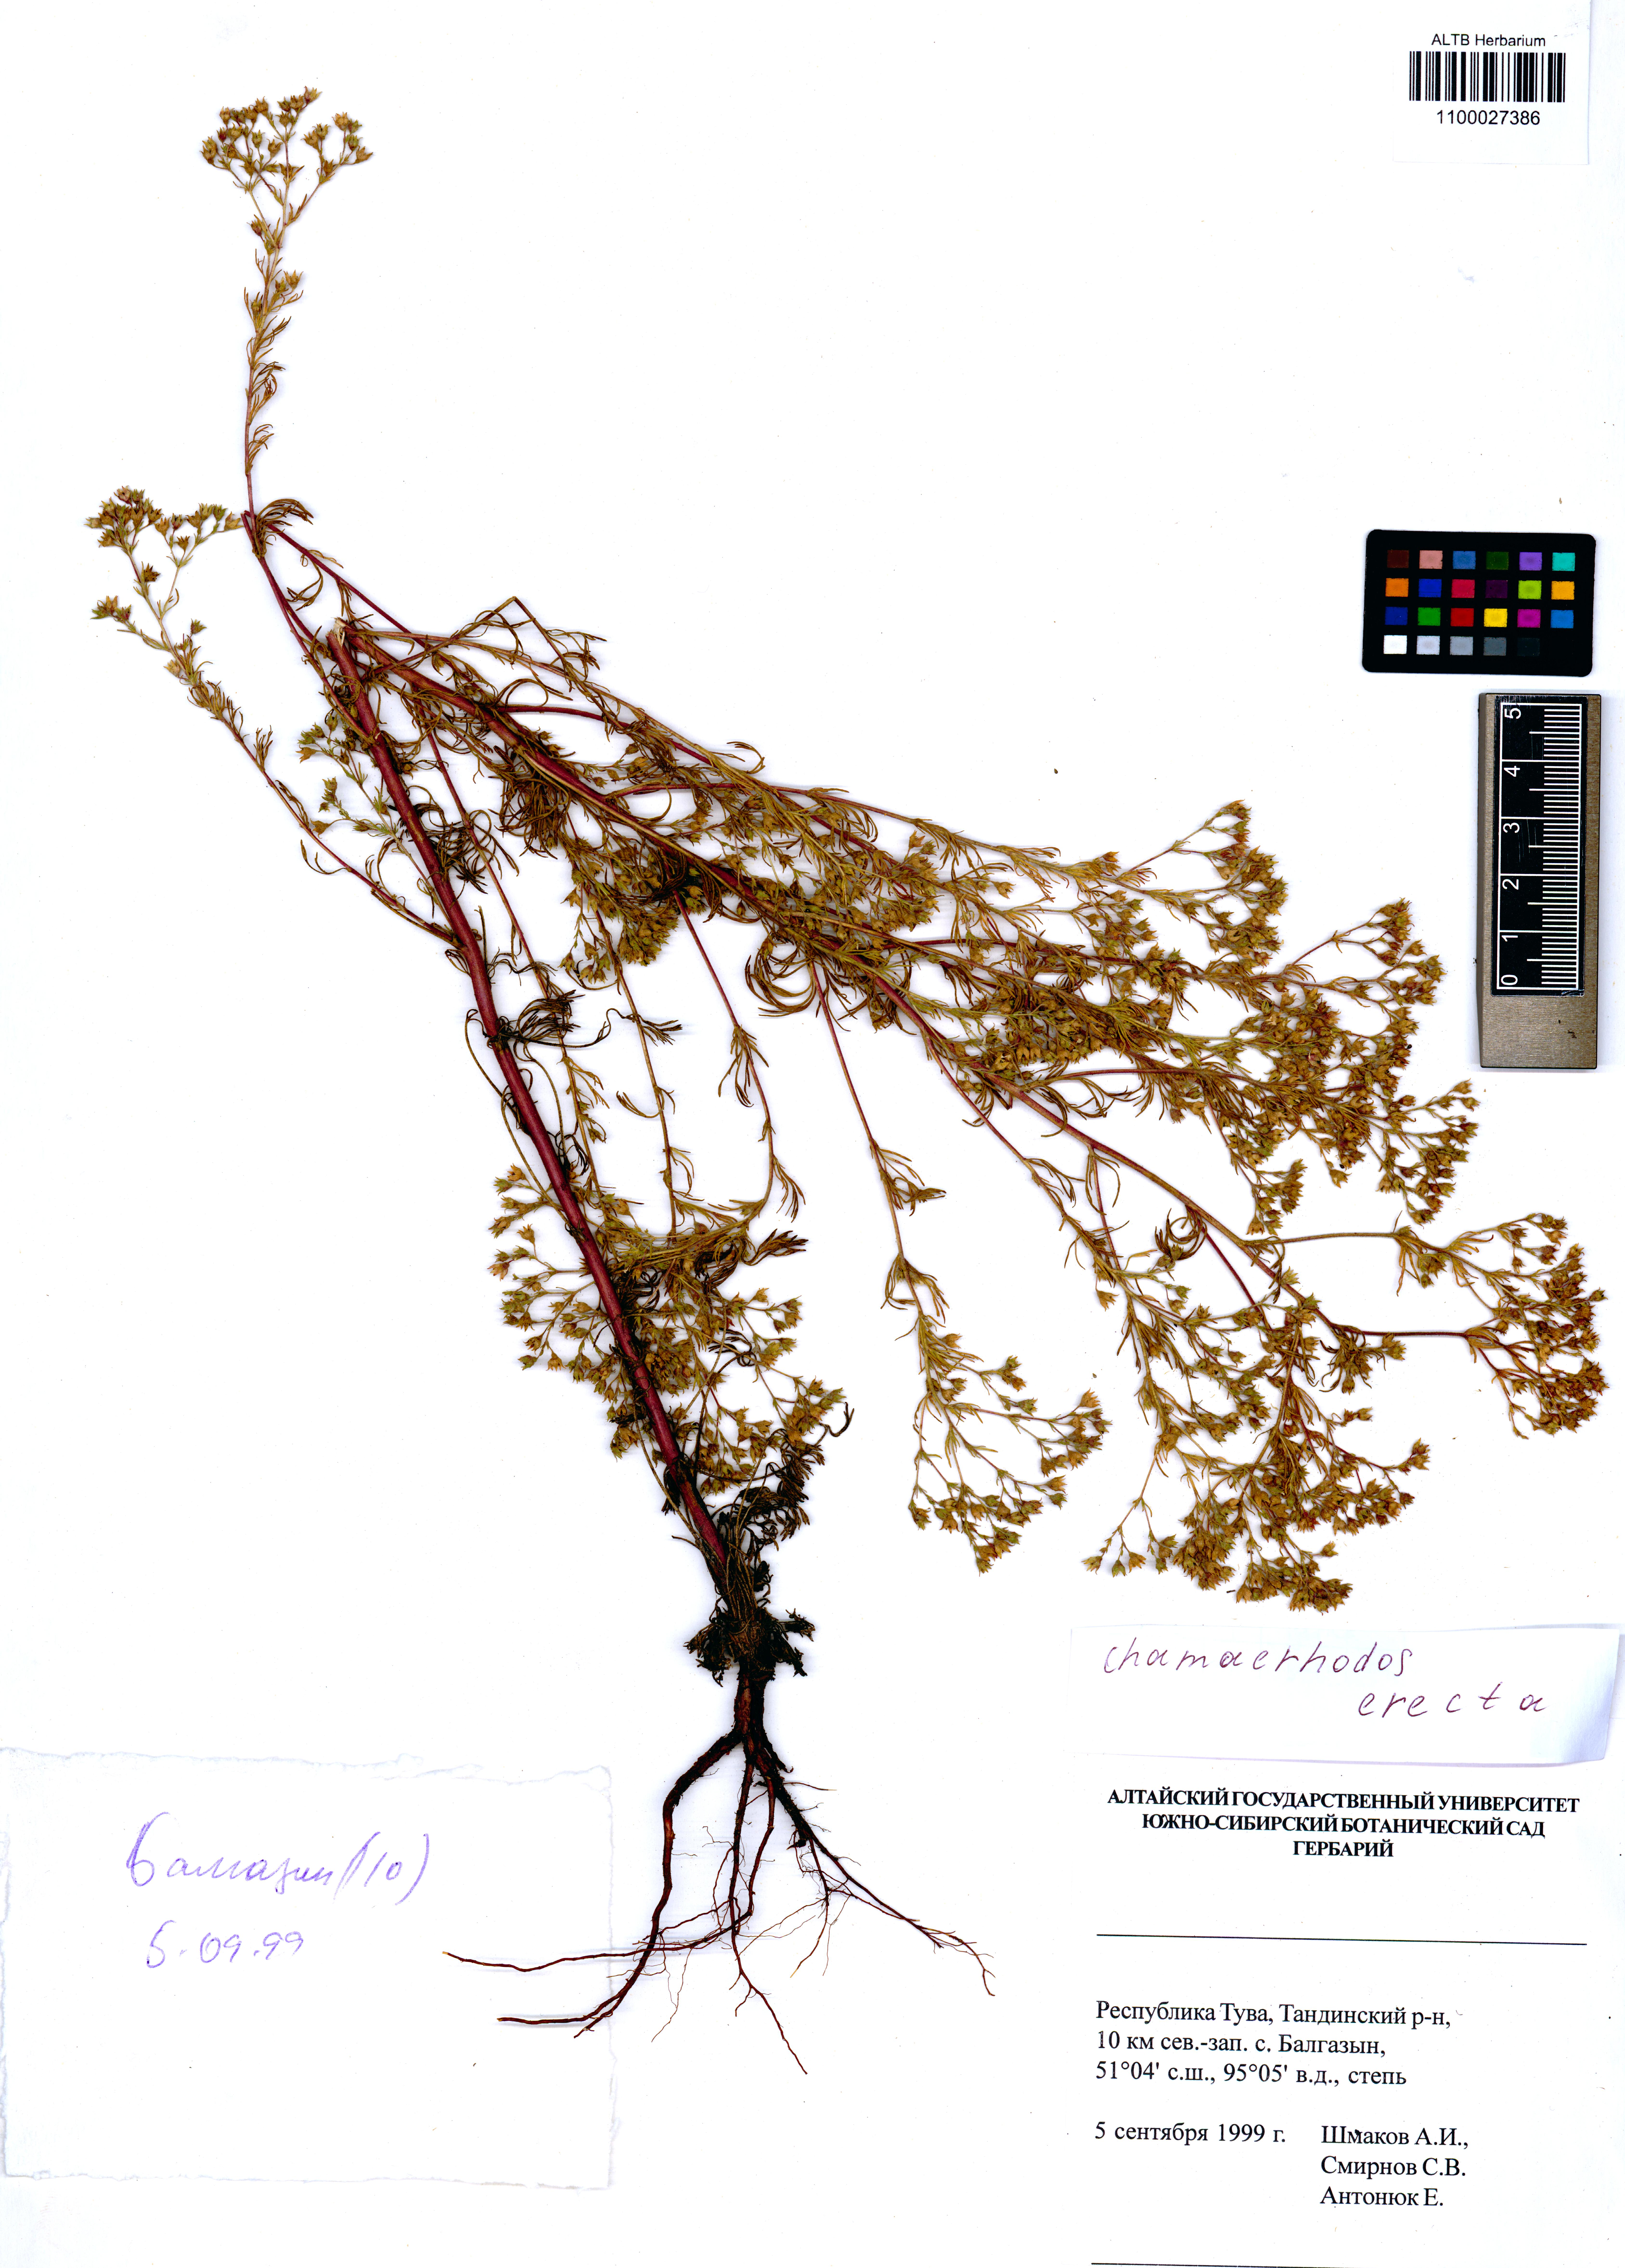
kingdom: Plantae
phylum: Tracheophyta
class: Magnoliopsida
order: Rosales
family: Rosaceae
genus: Chamaerhodos
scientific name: Chamaerhodos erecta
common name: American chamaerhodos
